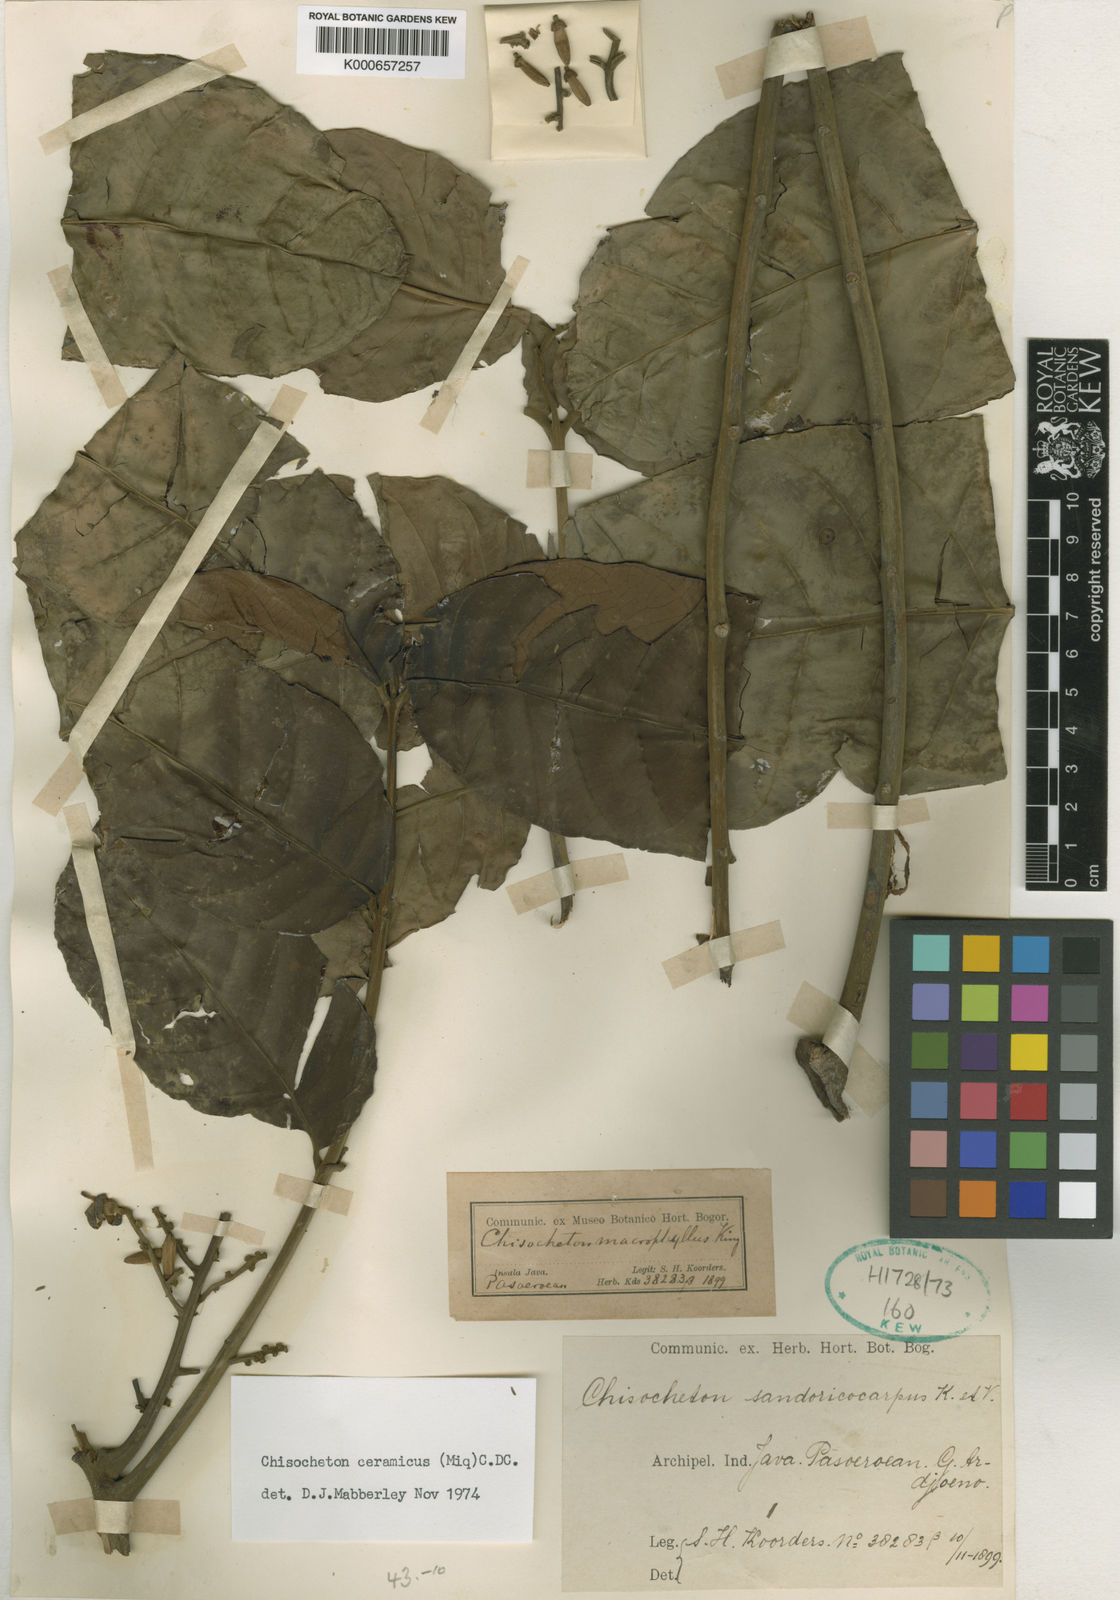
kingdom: Plantae
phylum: Tracheophyta
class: Magnoliopsida
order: Sapindales
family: Meliaceae
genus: Chisocheton
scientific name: Chisocheton ceramicus
